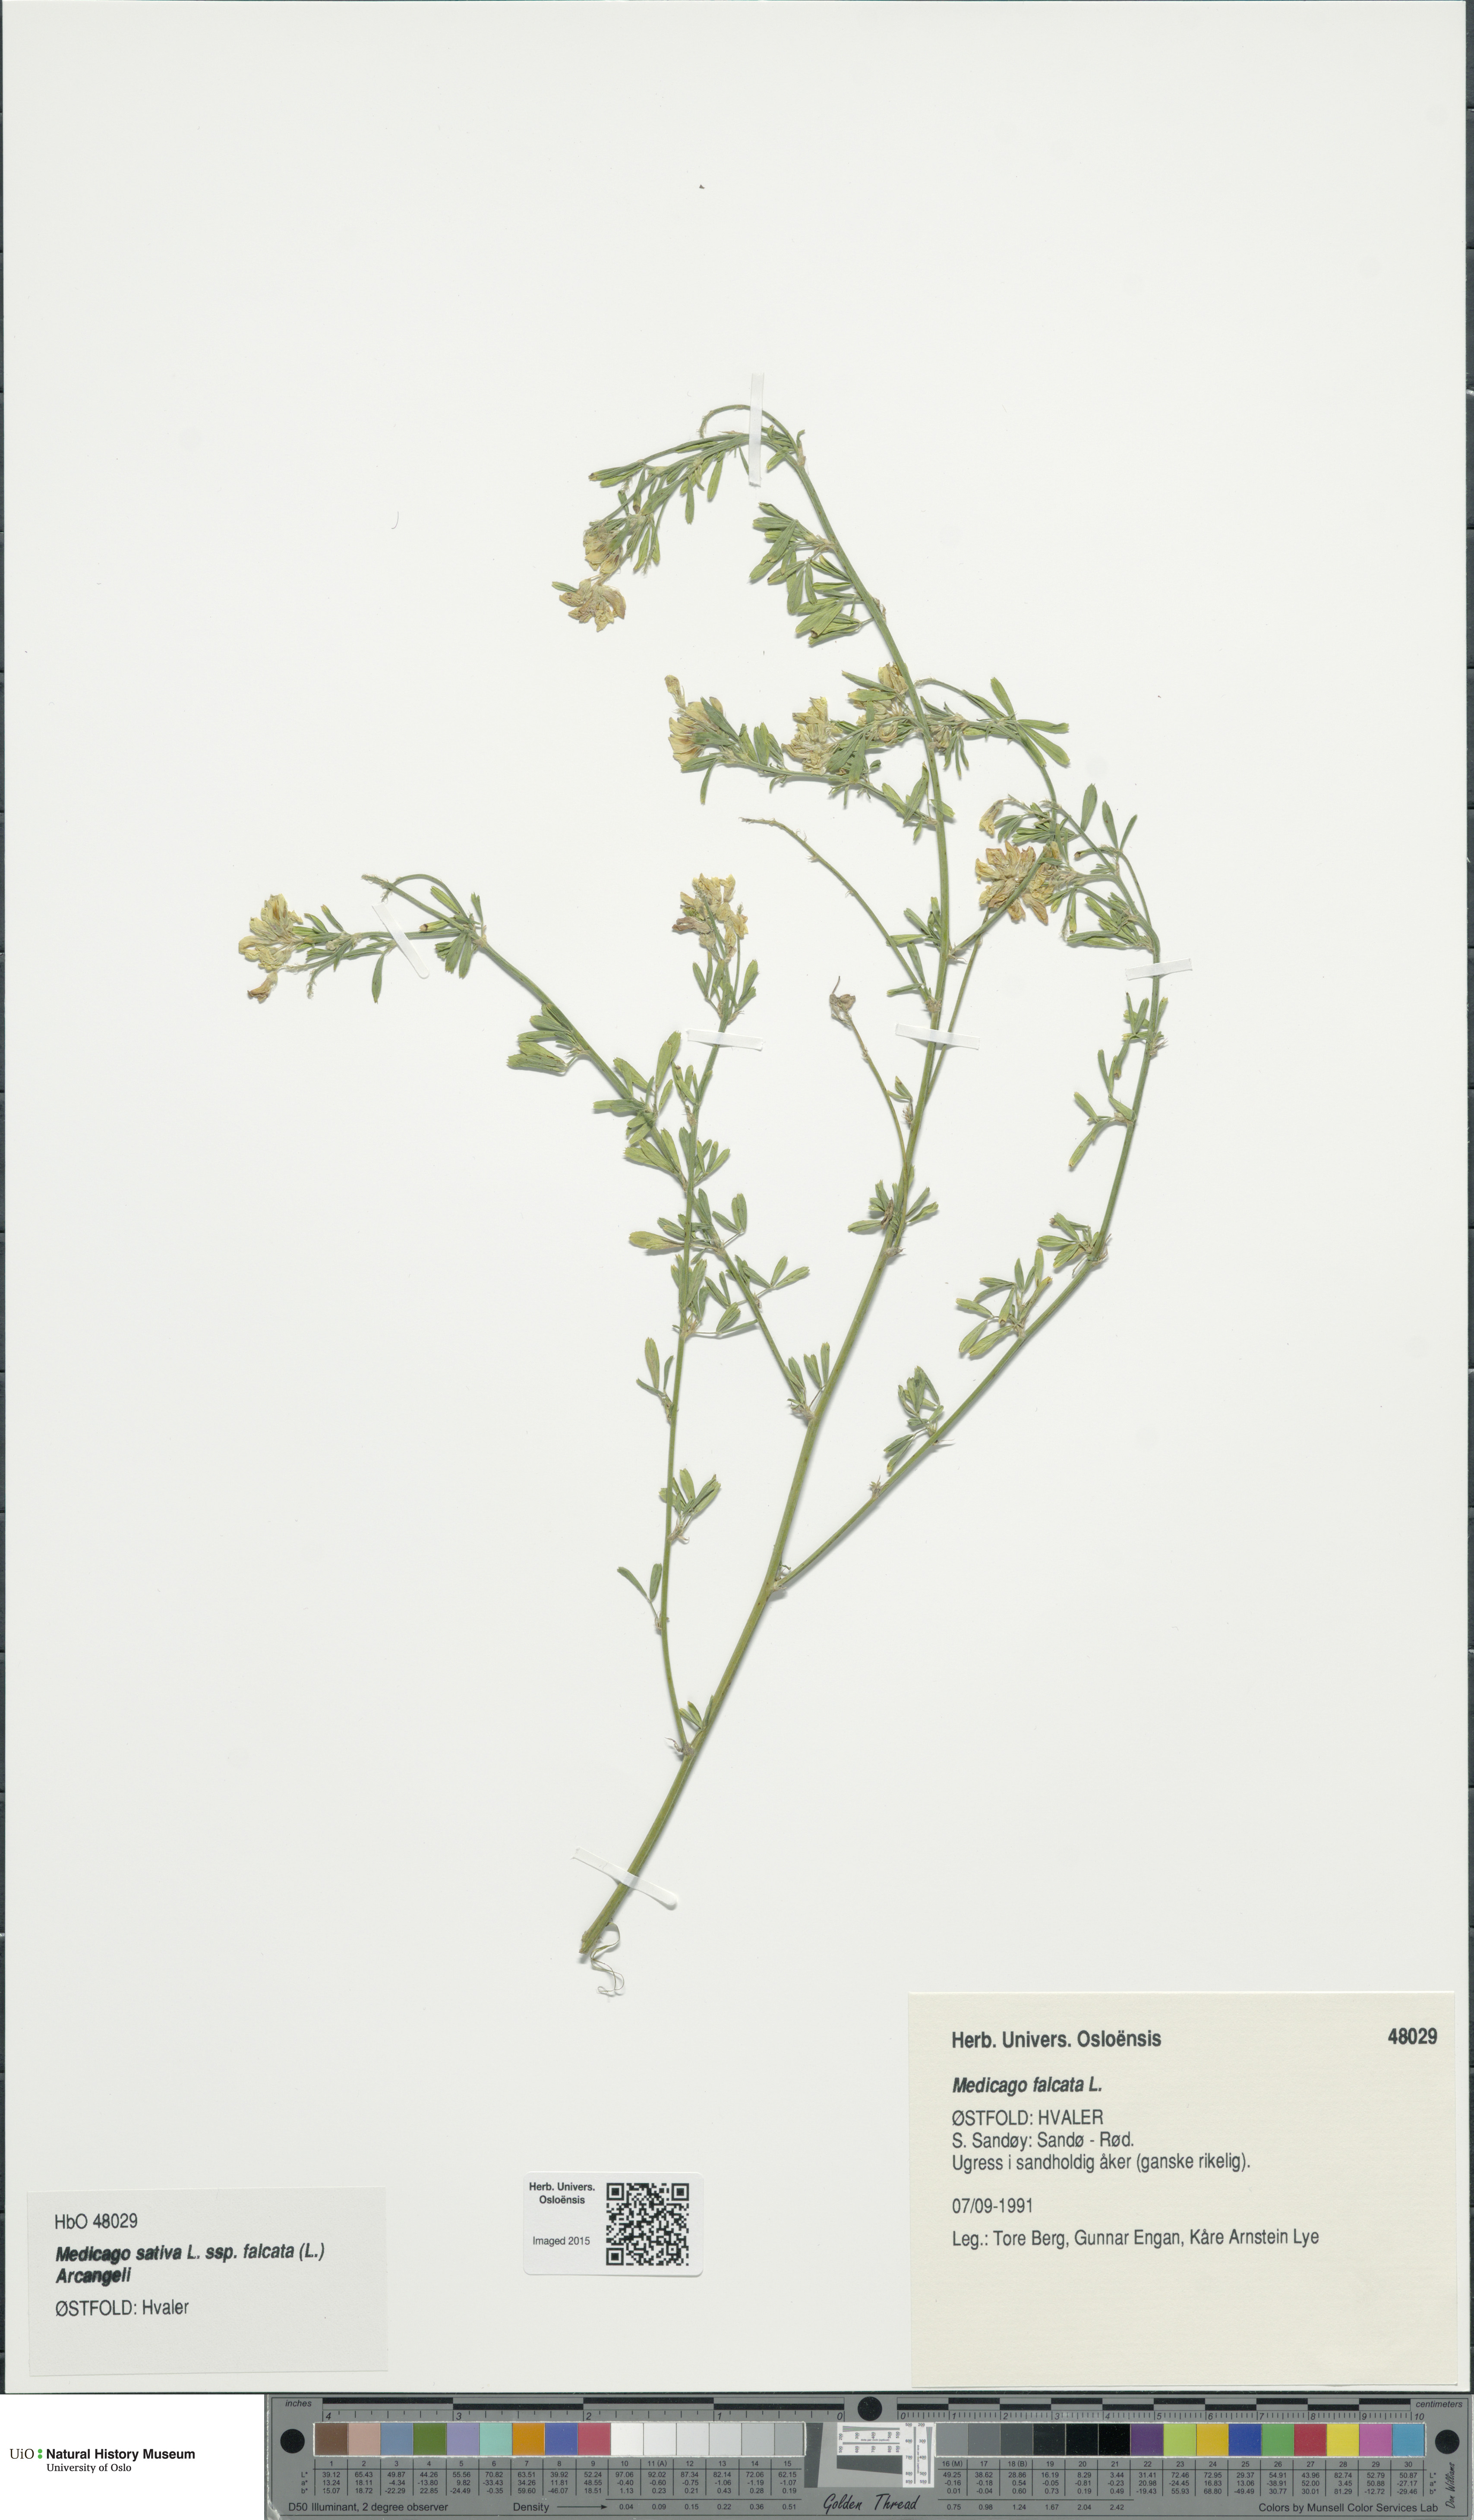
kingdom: Plantae
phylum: Tracheophyta
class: Magnoliopsida
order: Fabales
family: Fabaceae
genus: Medicago
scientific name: Medicago falcata
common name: Sickle medick
